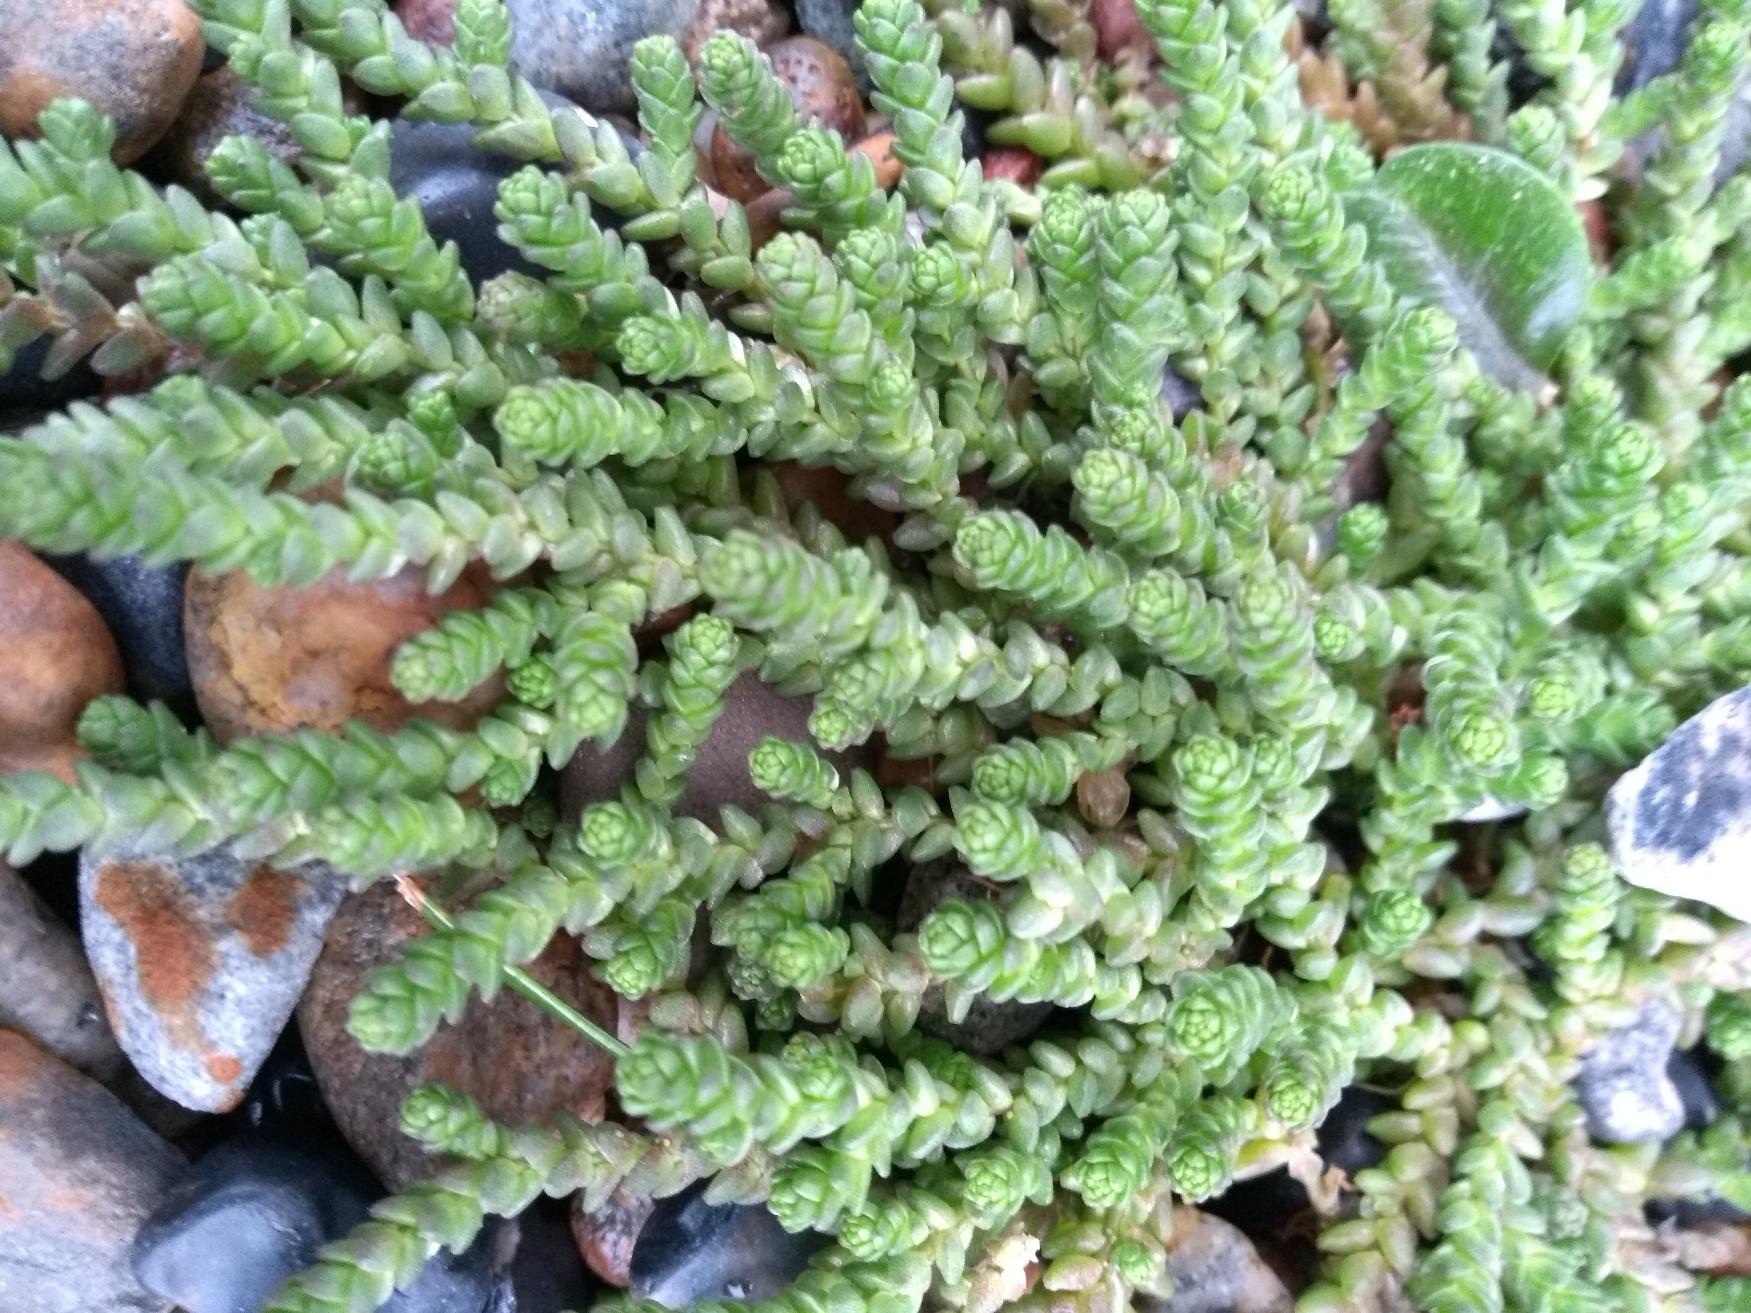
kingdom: Plantae
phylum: Tracheophyta
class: Magnoliopsida
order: Saxifragales
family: Crassulaceae
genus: Sedum
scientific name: Sedum acre
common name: Bidende stenurt
